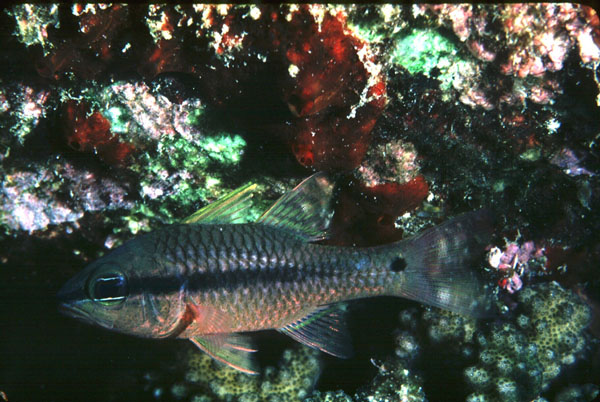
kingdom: Animalia
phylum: Chordata
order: Perciformes
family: Apogonidae
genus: Pristiapogon
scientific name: Pristiapogon kallopterus
